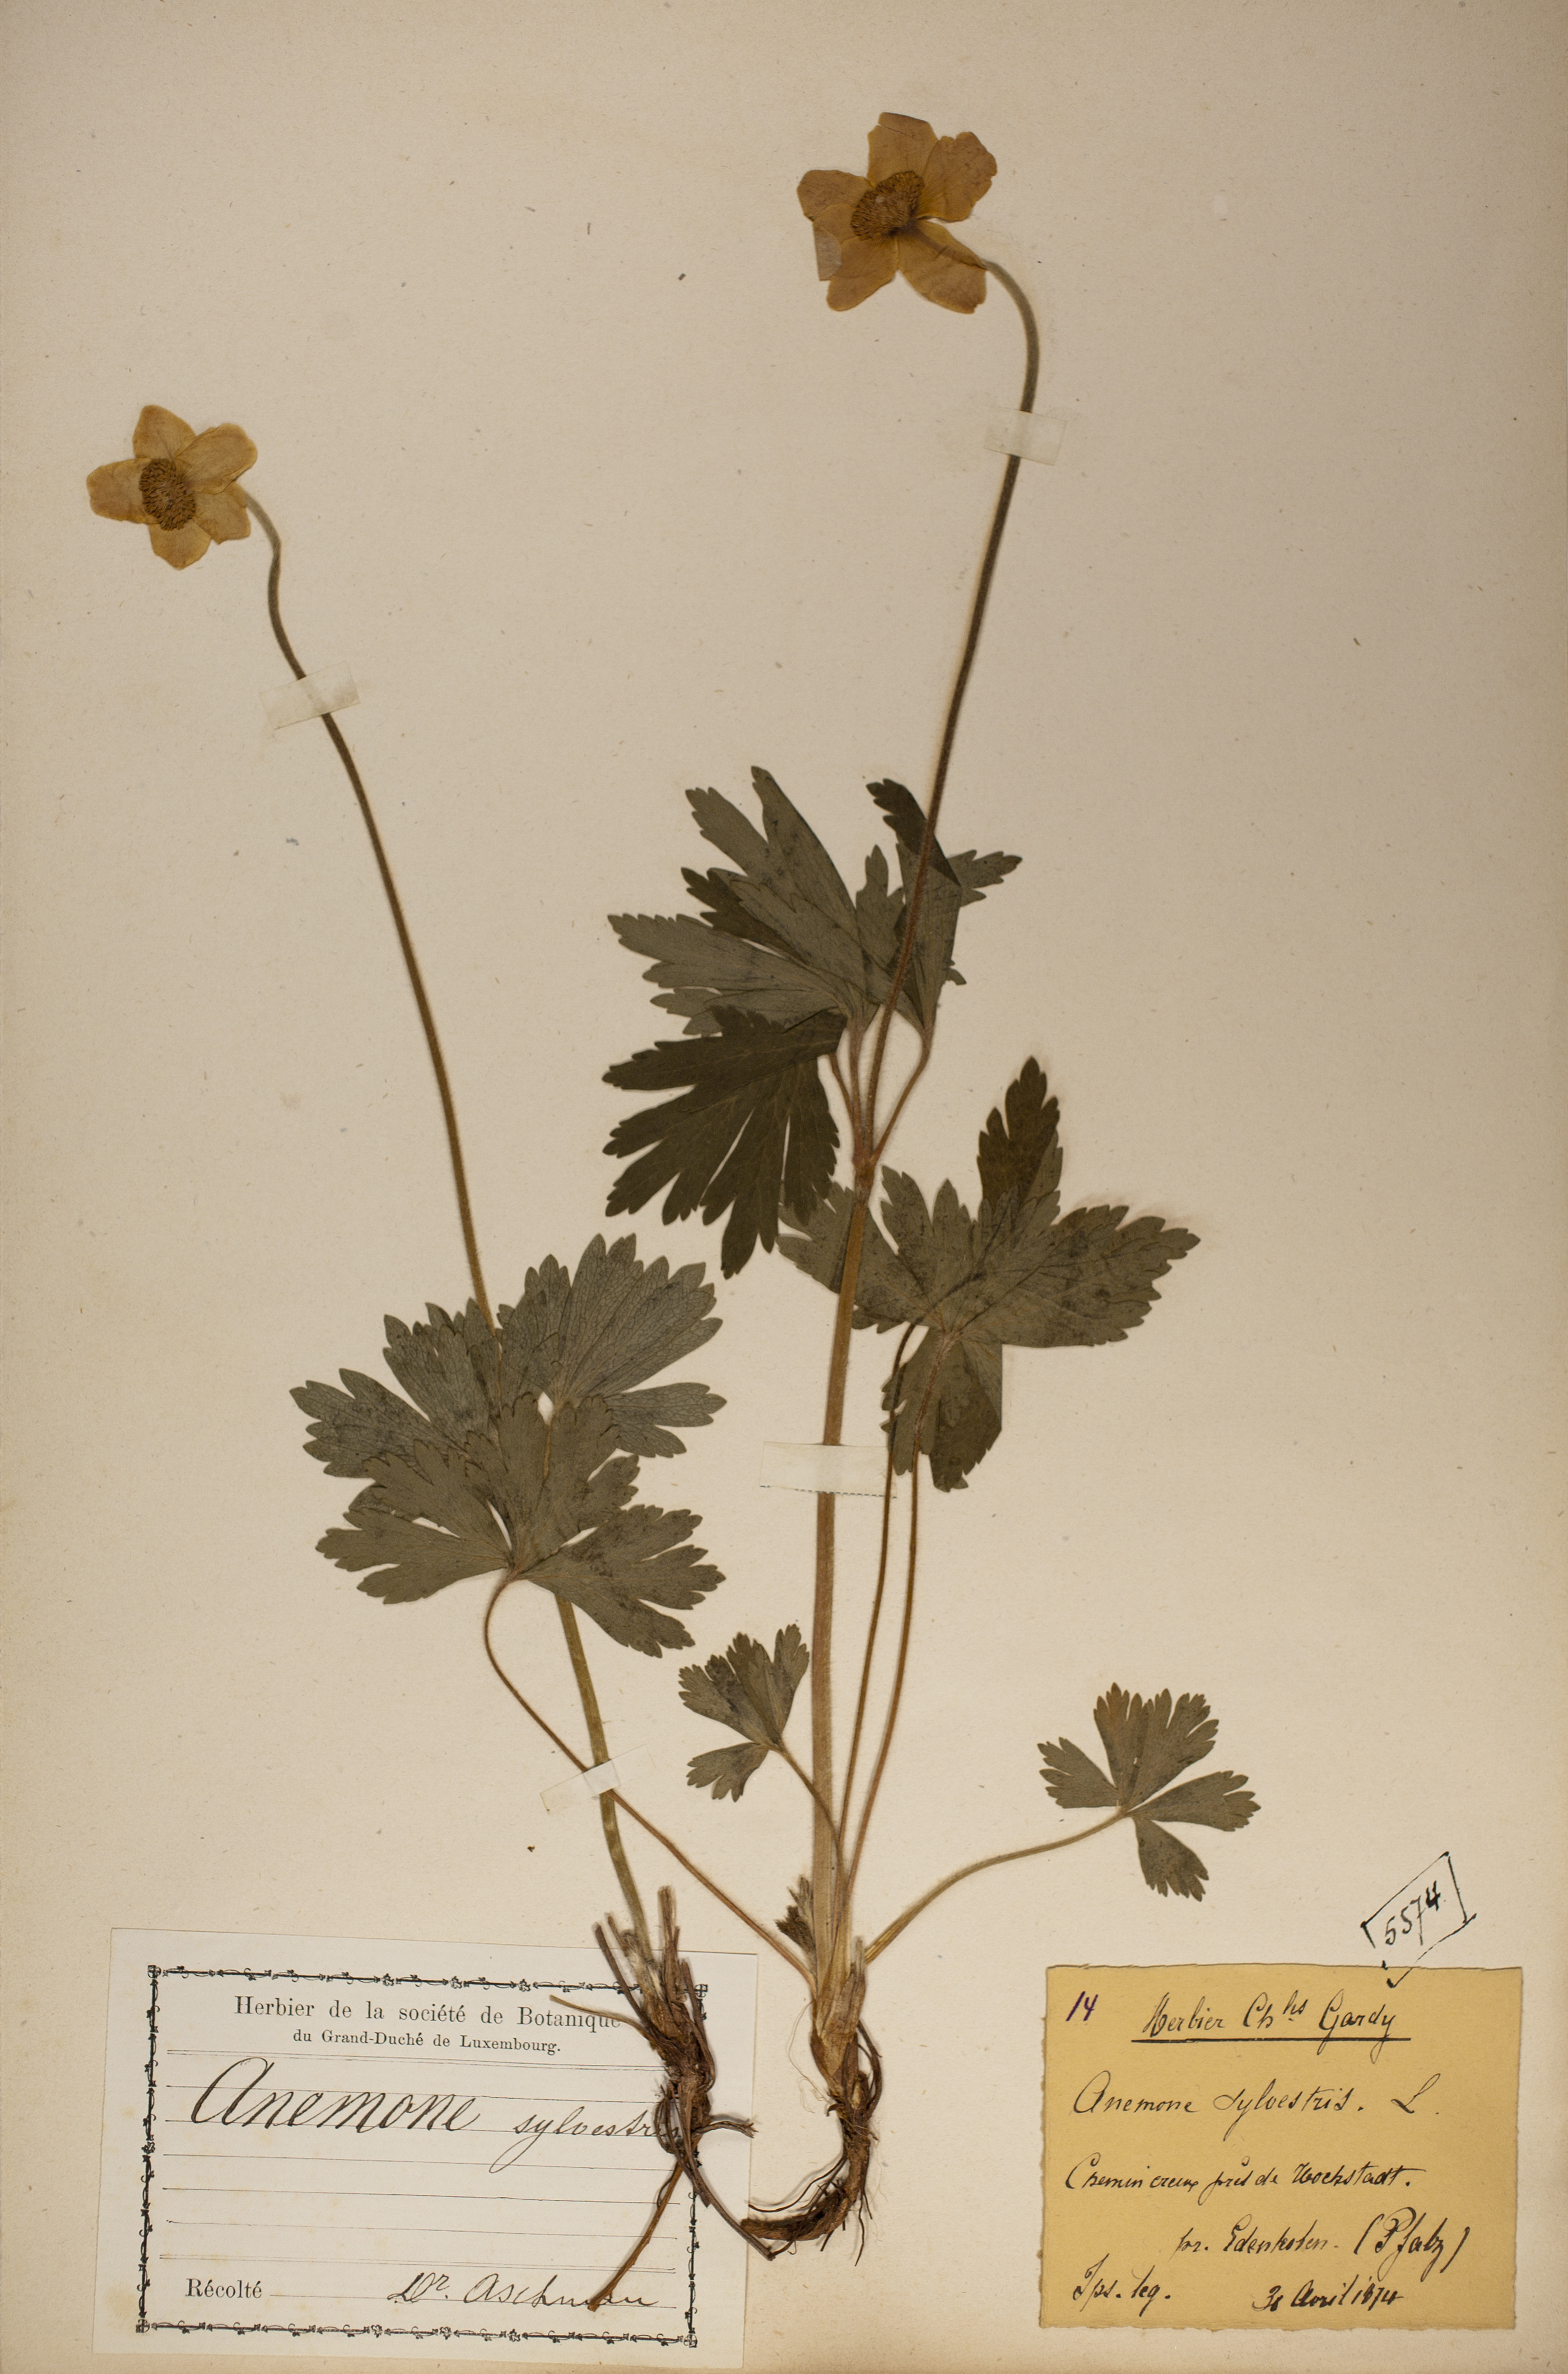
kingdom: Plantae
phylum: Tracheophyta
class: Magnoliopsida
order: Ranunculales
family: Ranunculaceae
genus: Anemone
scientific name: Anemone sylvestris
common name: Snowdrop anemone
